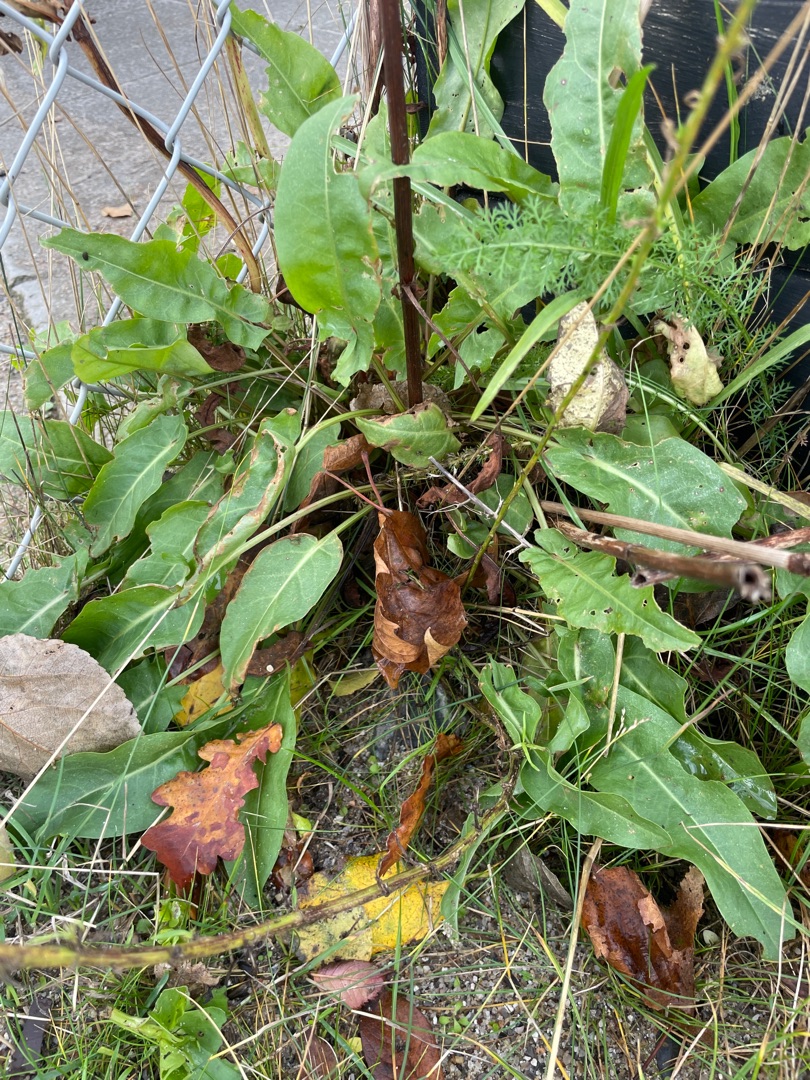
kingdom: Plantae
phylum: Tracheophyta
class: Magnoliopsida
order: Caryophyllales
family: Polygonaceae
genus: Rumex
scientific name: Rumex thyrsiflorus
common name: Dusk-syre
